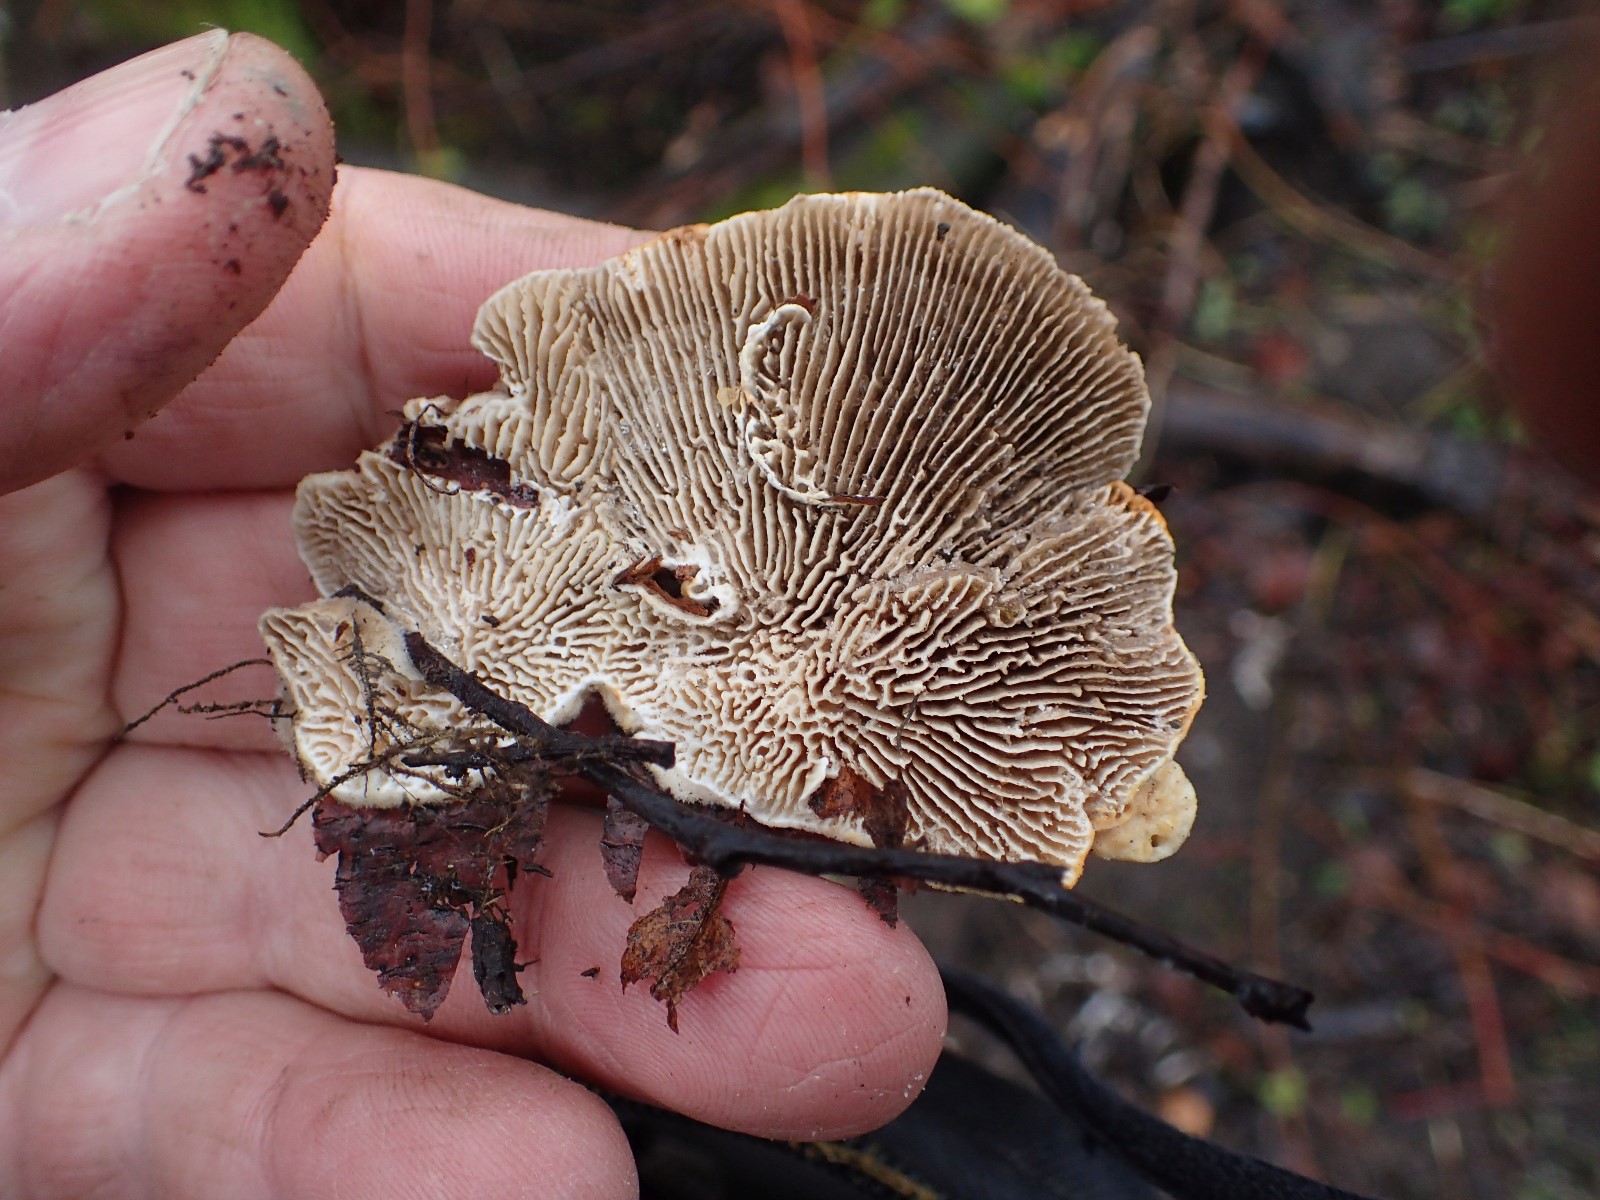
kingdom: Fungi
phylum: Basidiomycota
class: Agaricomycetes
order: Polyporales
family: Polyporaceae
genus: Lenzites
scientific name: Lenzites betulinus
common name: birke-læderporesvamp
